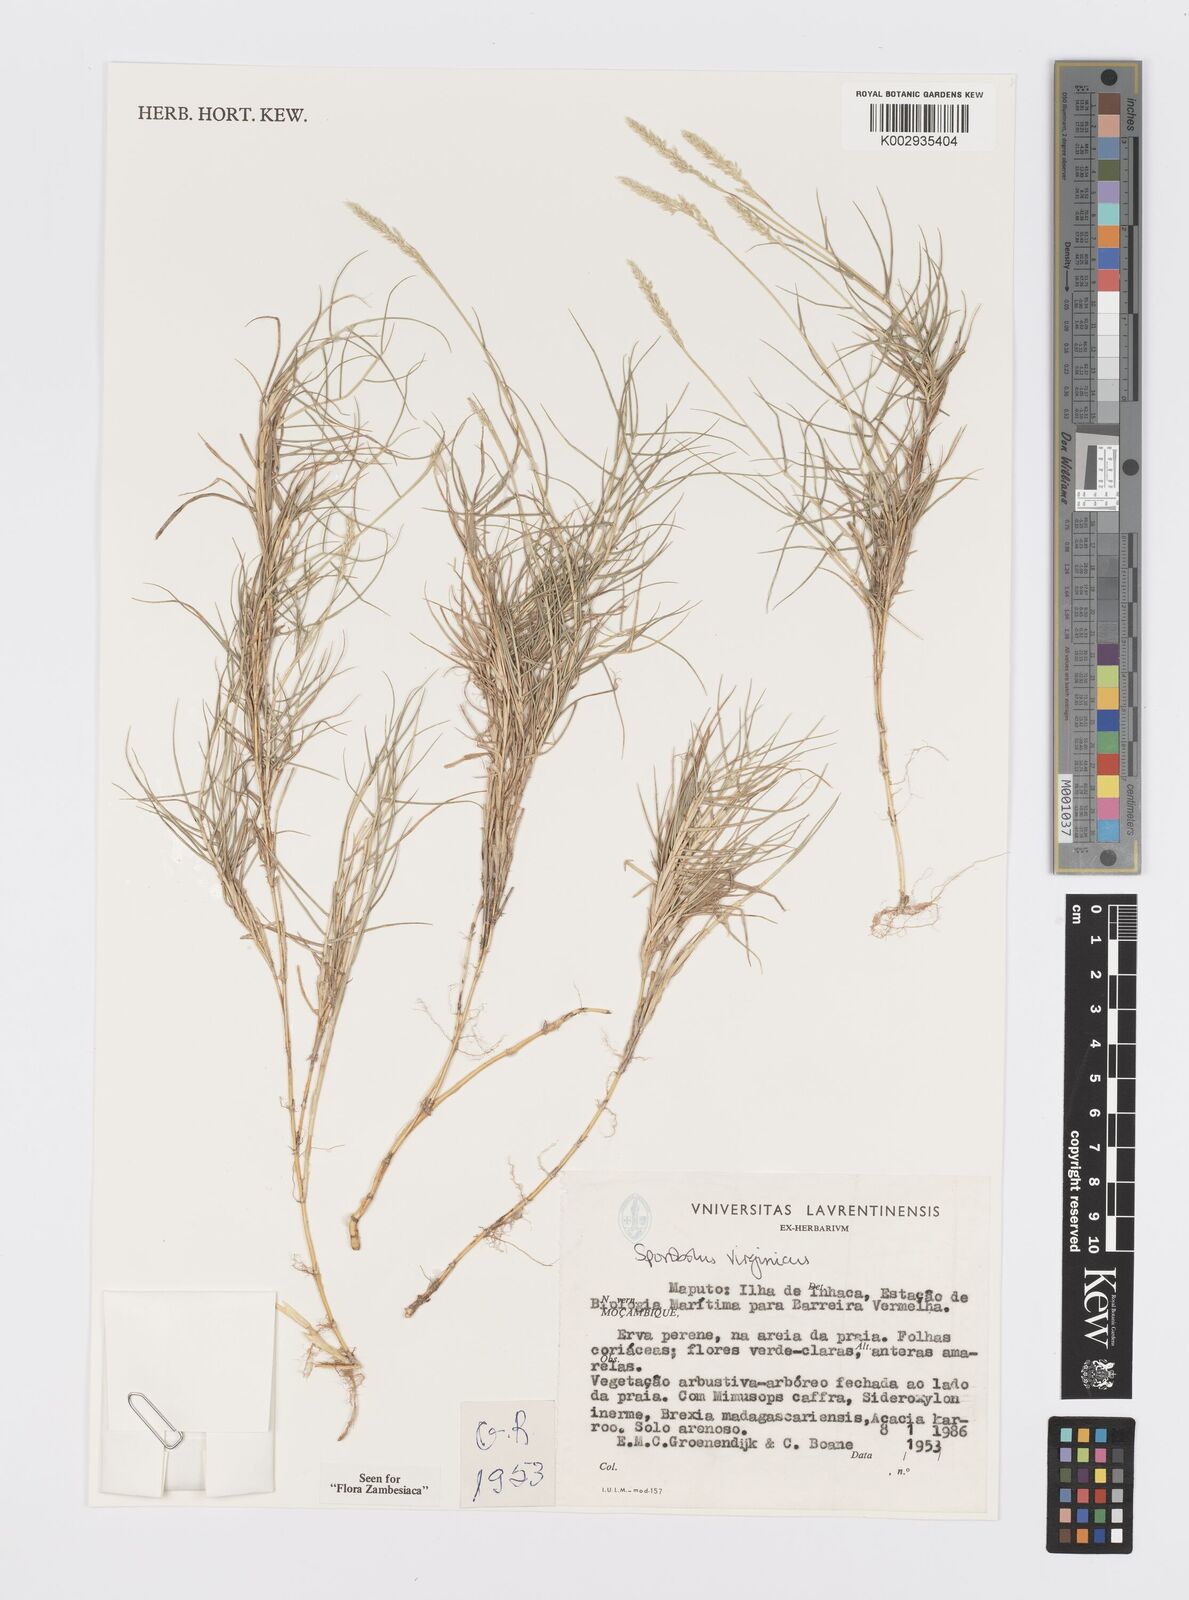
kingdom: Plantae
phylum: Tracheophyta
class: Liliopsida
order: Poales
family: Poaceae
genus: Sporobolus
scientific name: Sporobolus virginicus
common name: Beach dropseed
